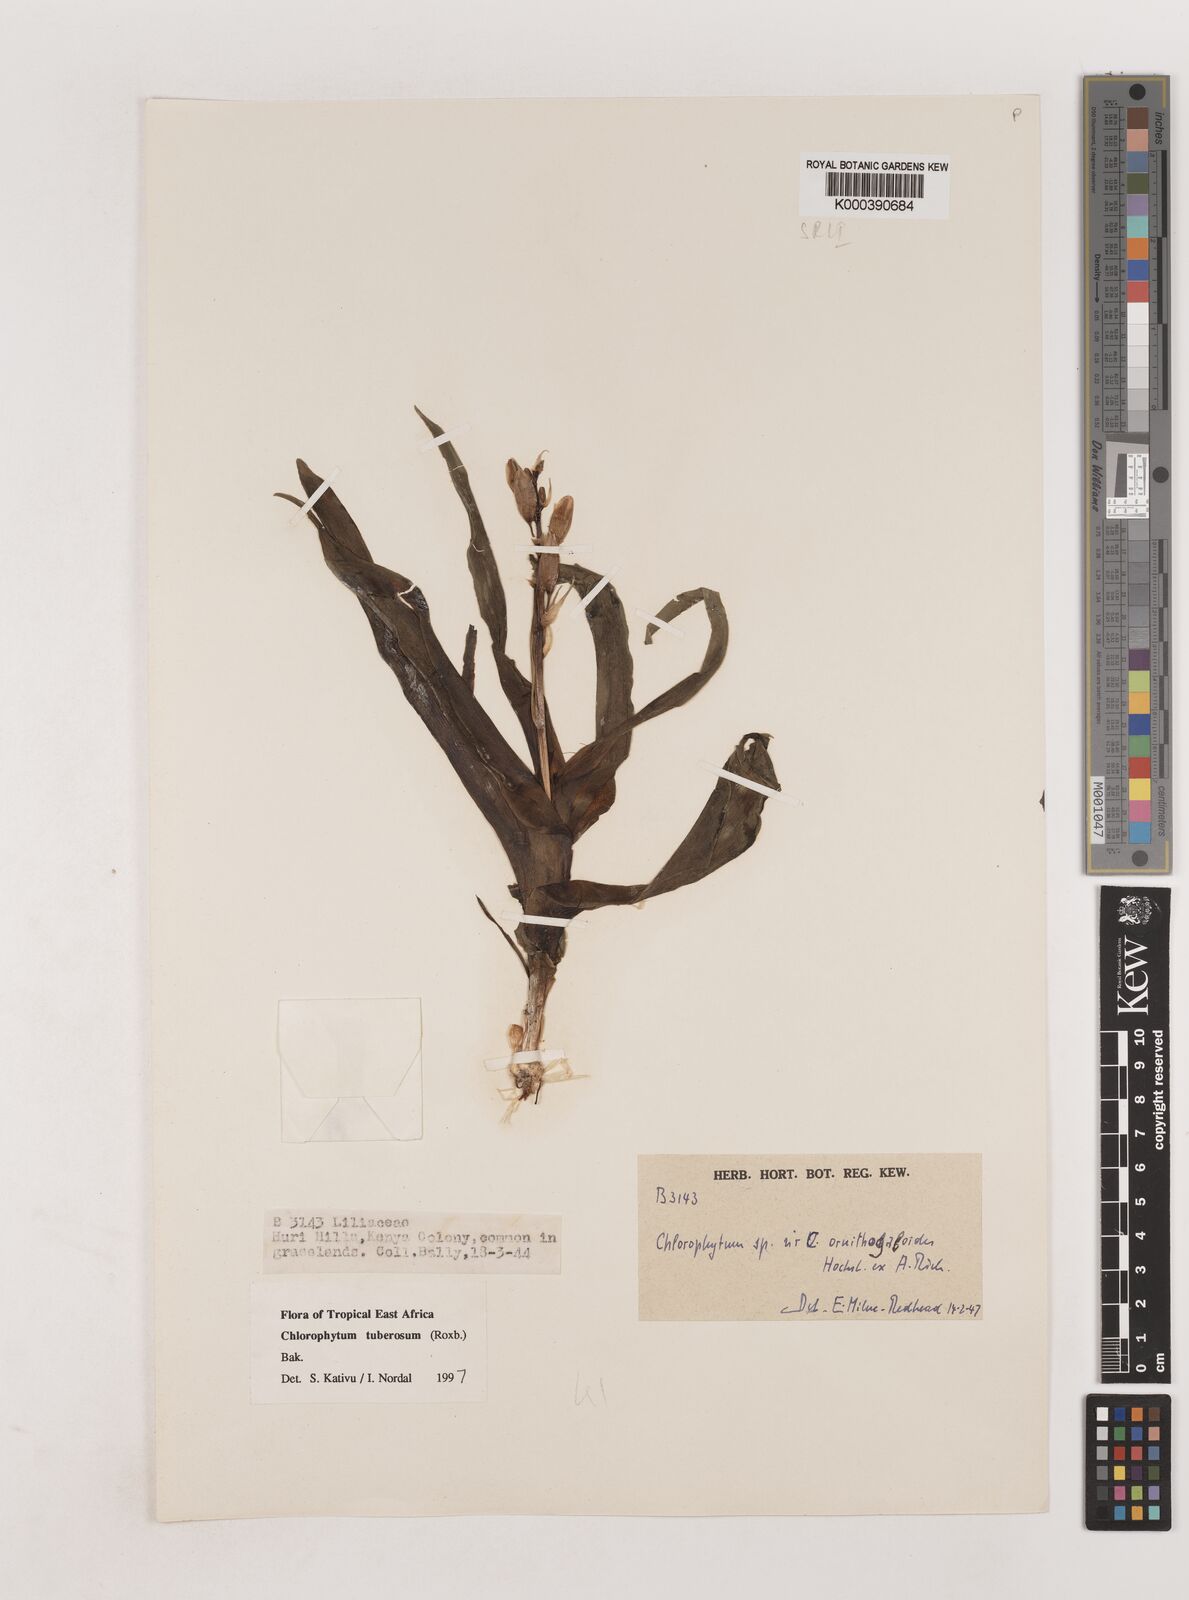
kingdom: Plantae
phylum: Tracheophyta
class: Liliopsida
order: Asparagales
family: Asparagaceae
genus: Chlorophytum
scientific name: Chlorophytum tuberosum
